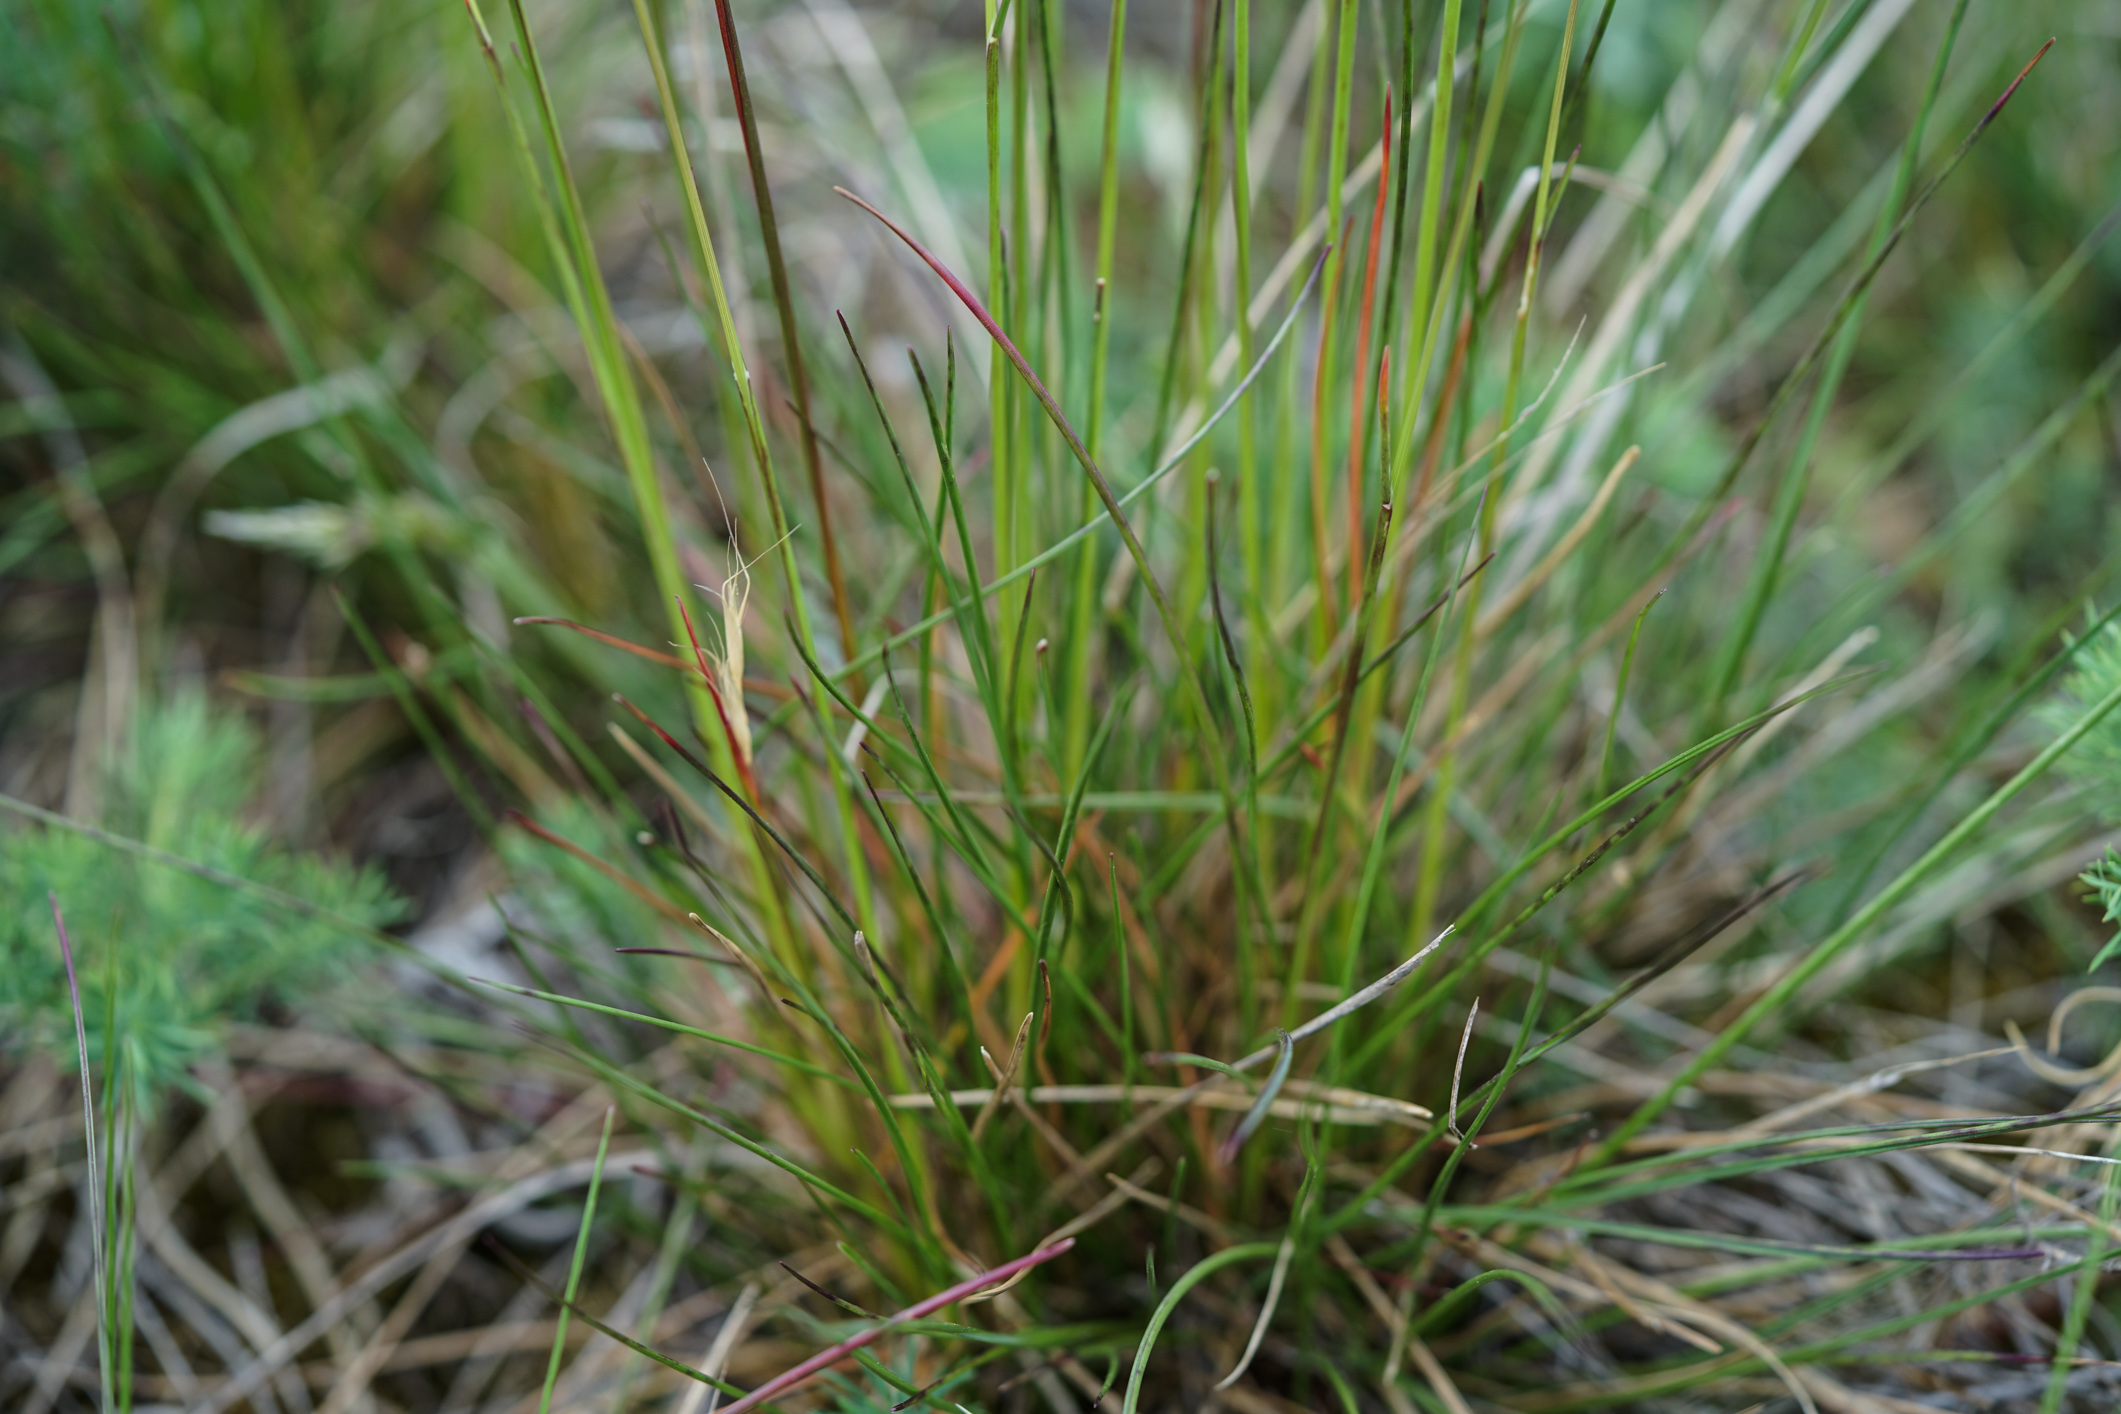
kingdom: Plantae
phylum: Tracheophyta
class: Liliopsida
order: Poales
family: Poaceae
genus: Poa
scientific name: Poa bulbosa
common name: Bulbous bluegrass
